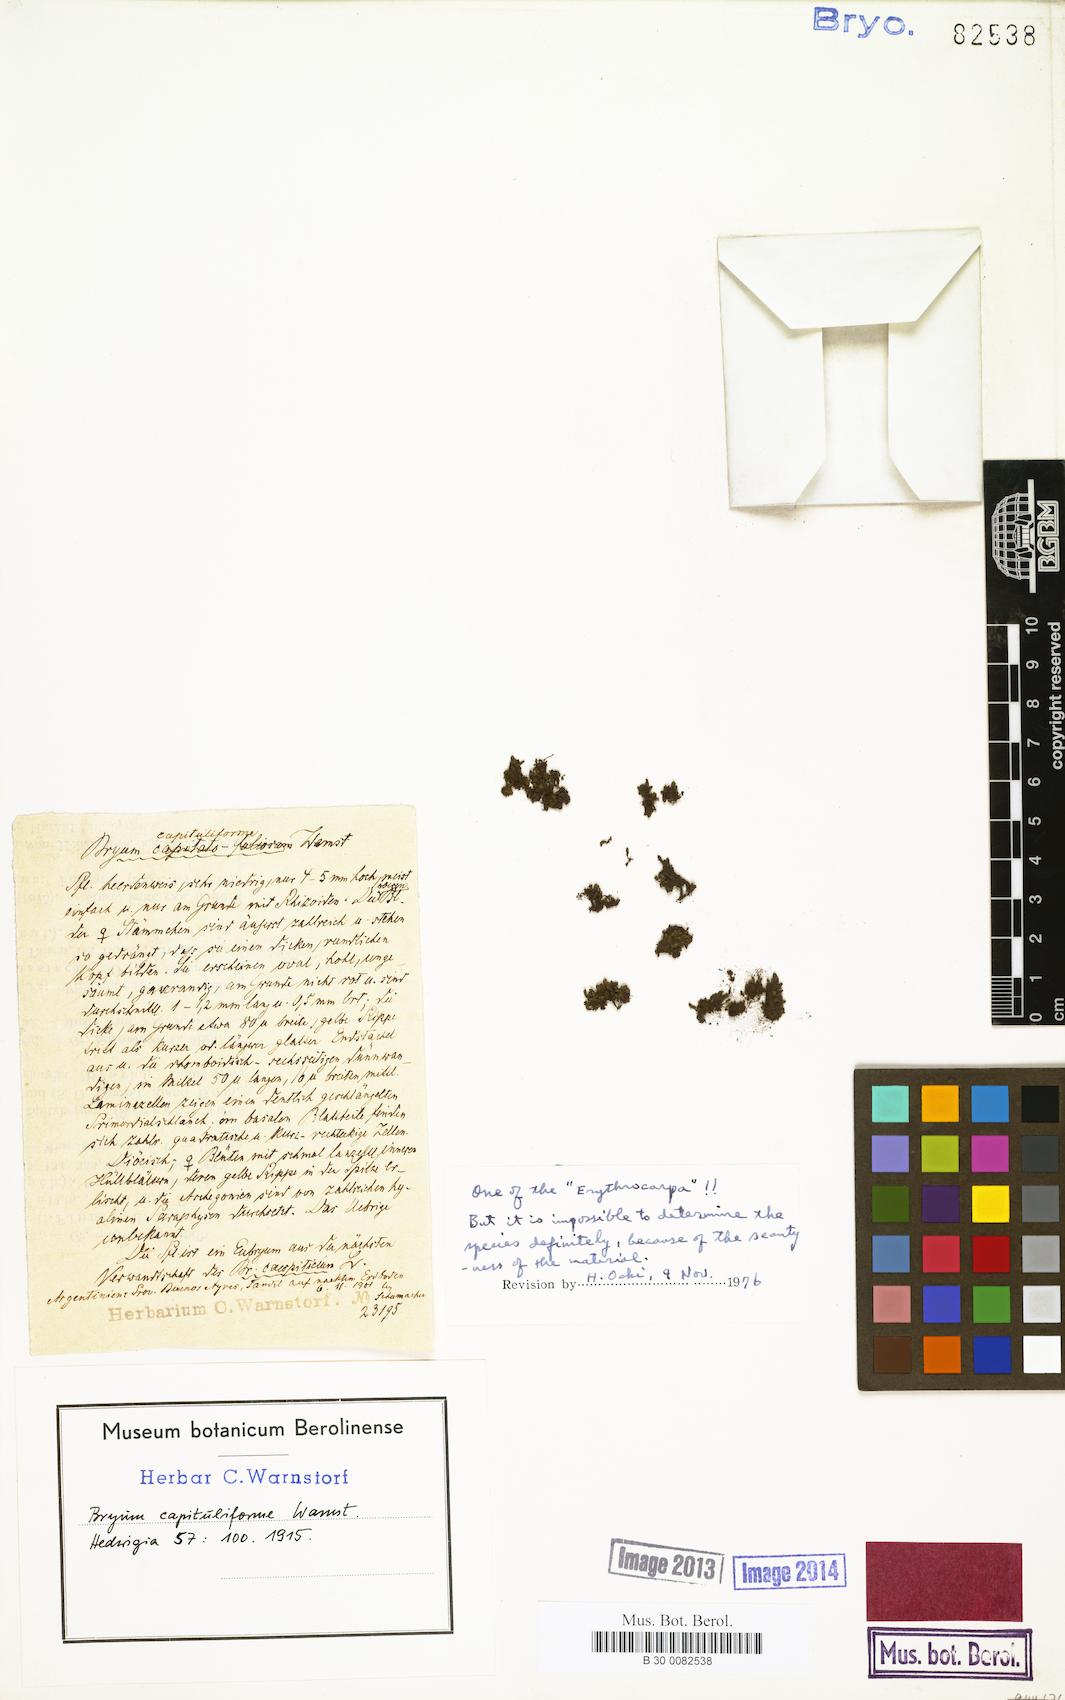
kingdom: Plantae
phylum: Bryophyta
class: Bryopsida
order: Bryales
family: Bryaceae
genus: Bryum
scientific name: Bryum capituliforme
